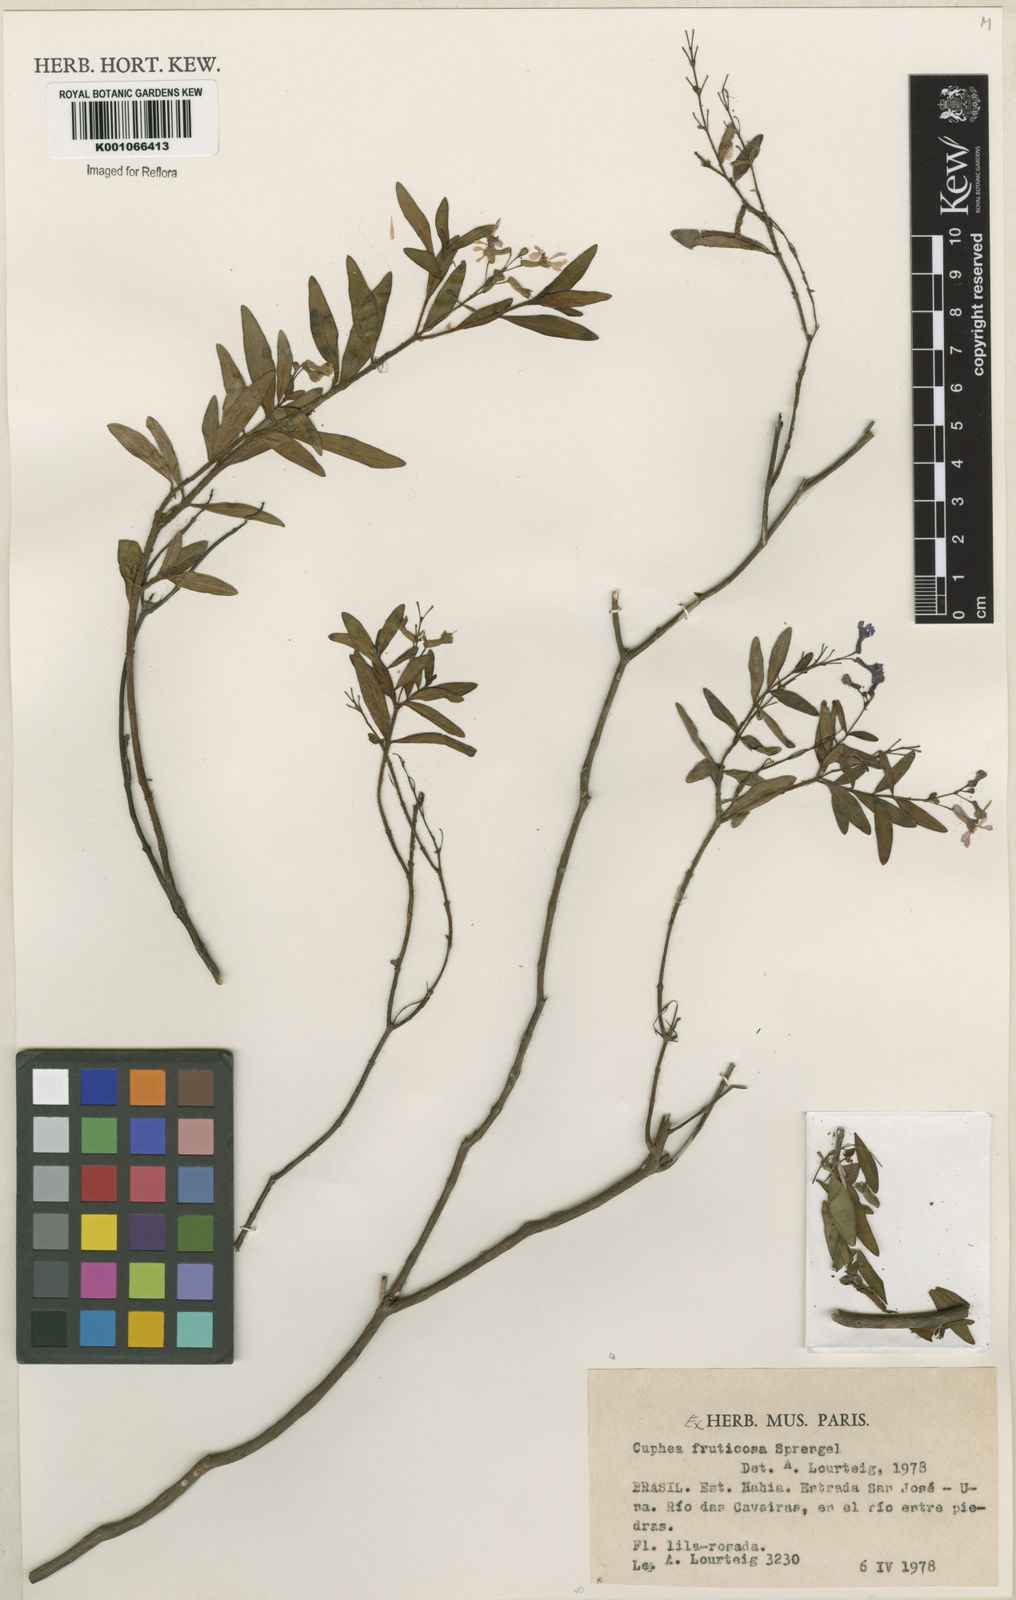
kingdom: Plantae
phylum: Tracheophyta
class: Magnoliopsida
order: Myrtales
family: Lythraceae
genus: Cuphea
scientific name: Cuphea fruticosa
